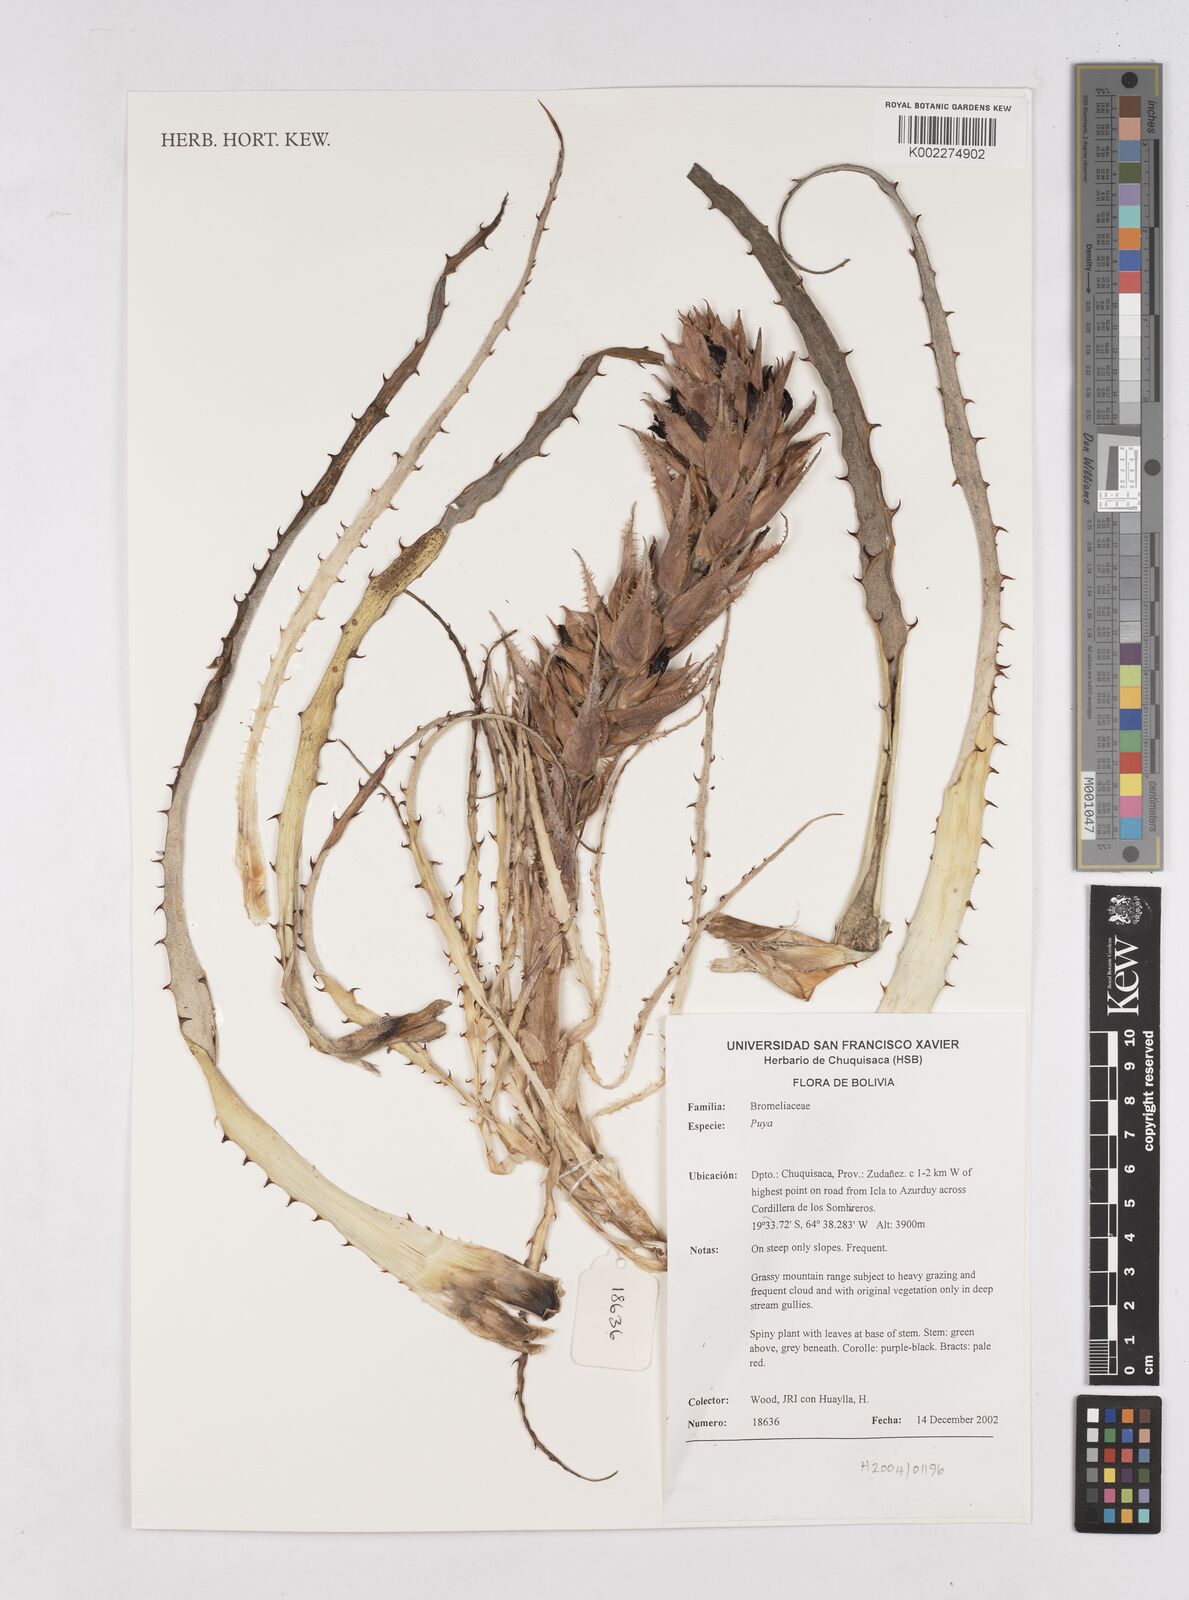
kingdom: Plantae
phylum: Tracheophyta
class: Liliopsida
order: Poales
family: Bromeliaceae
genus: Puya
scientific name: Puya
